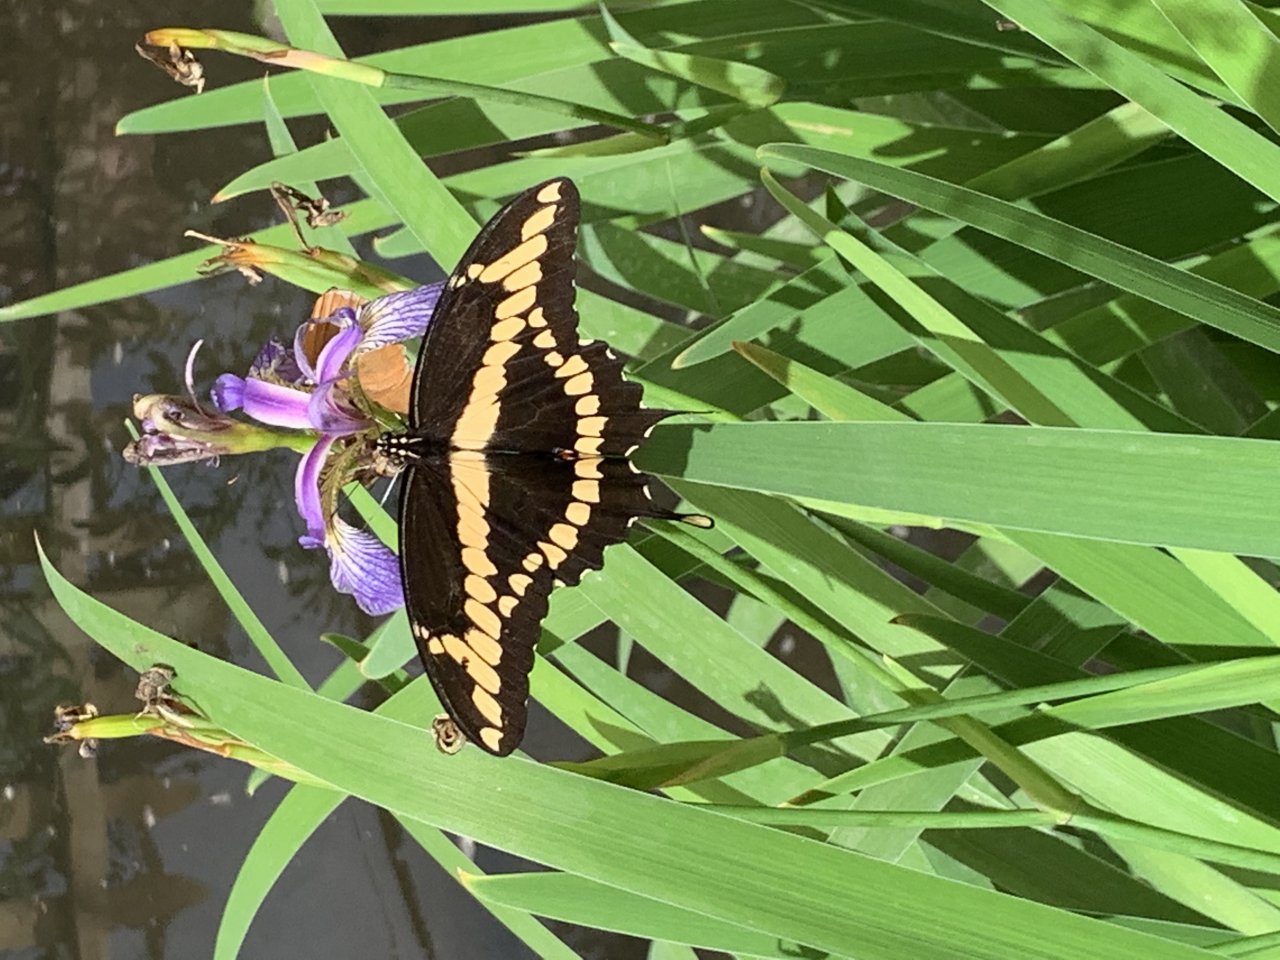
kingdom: Animalia
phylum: Arthropoda
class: Insecta
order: Lepidoptera
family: Papilionidae
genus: Papilio
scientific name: Papilio cresphontes
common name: Eastern Giant Swallowtail
